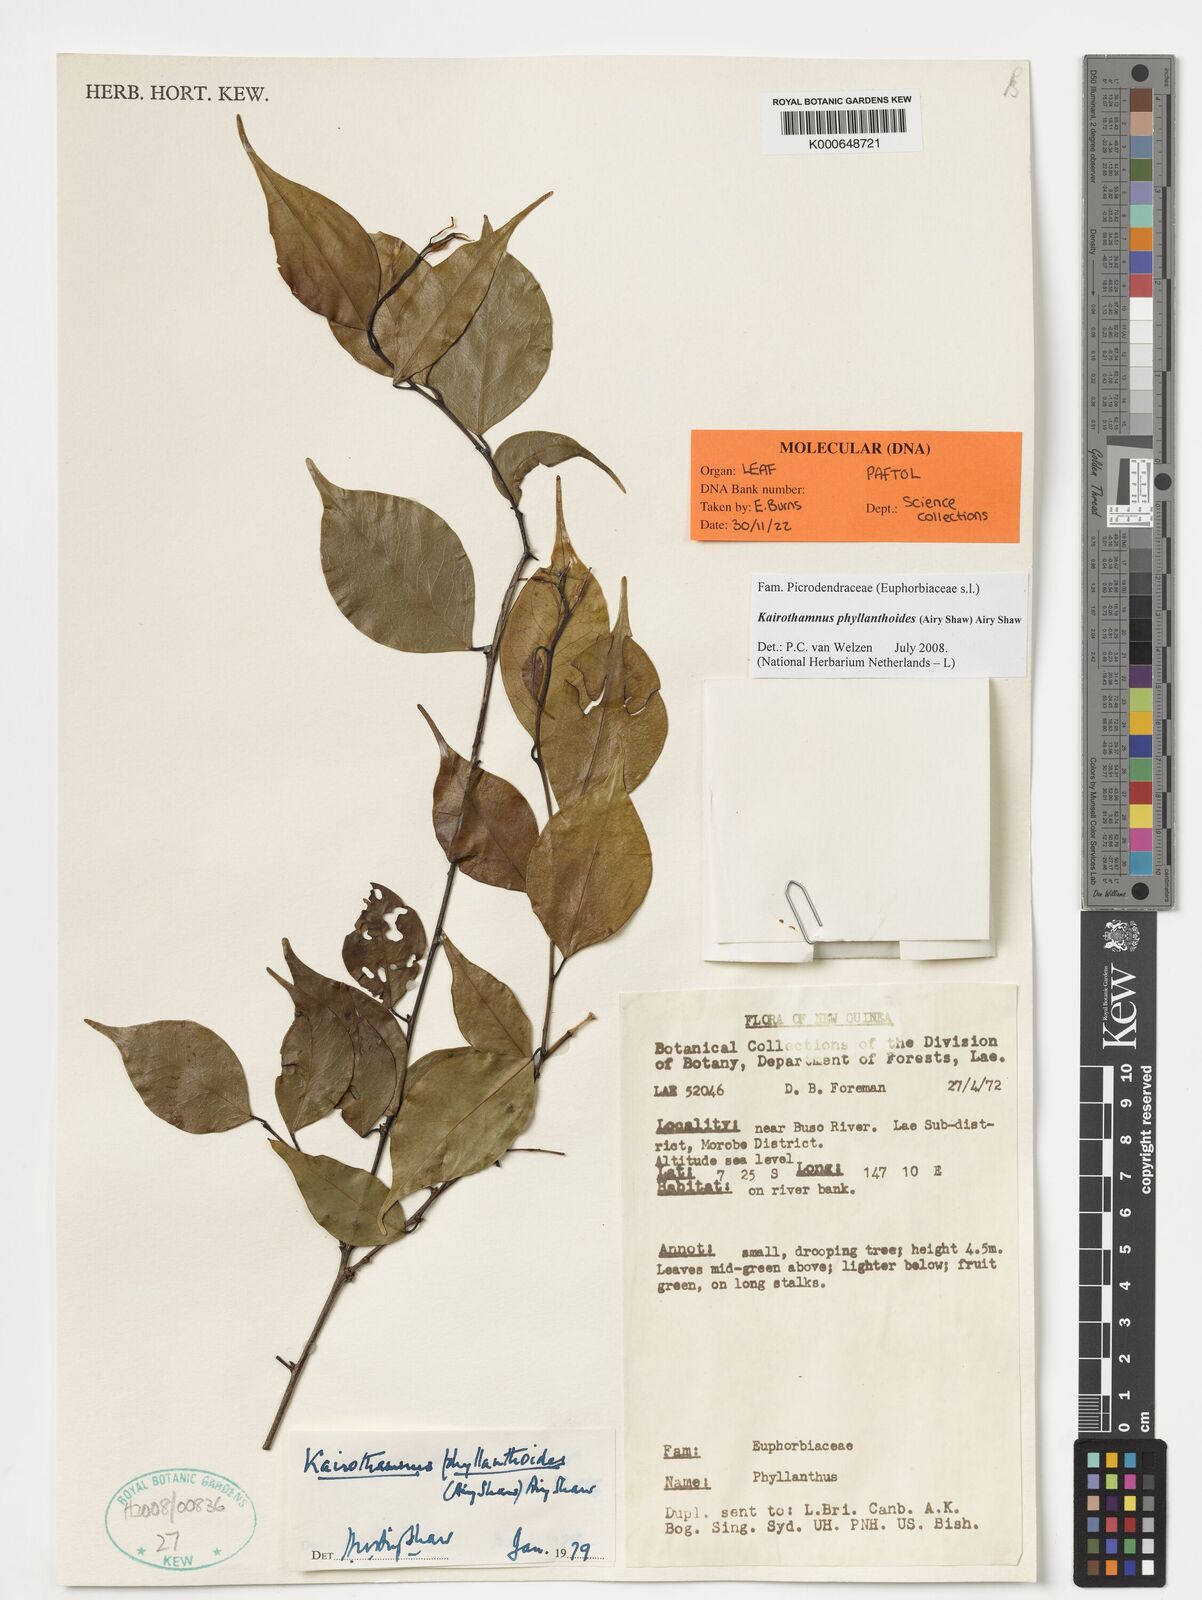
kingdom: Plantae
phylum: Tracheophyta
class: Magnoliopsida
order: Malpighiales
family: Picrodendraceae
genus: Kairothamnus
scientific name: Kairothamnus phyllanthoides
